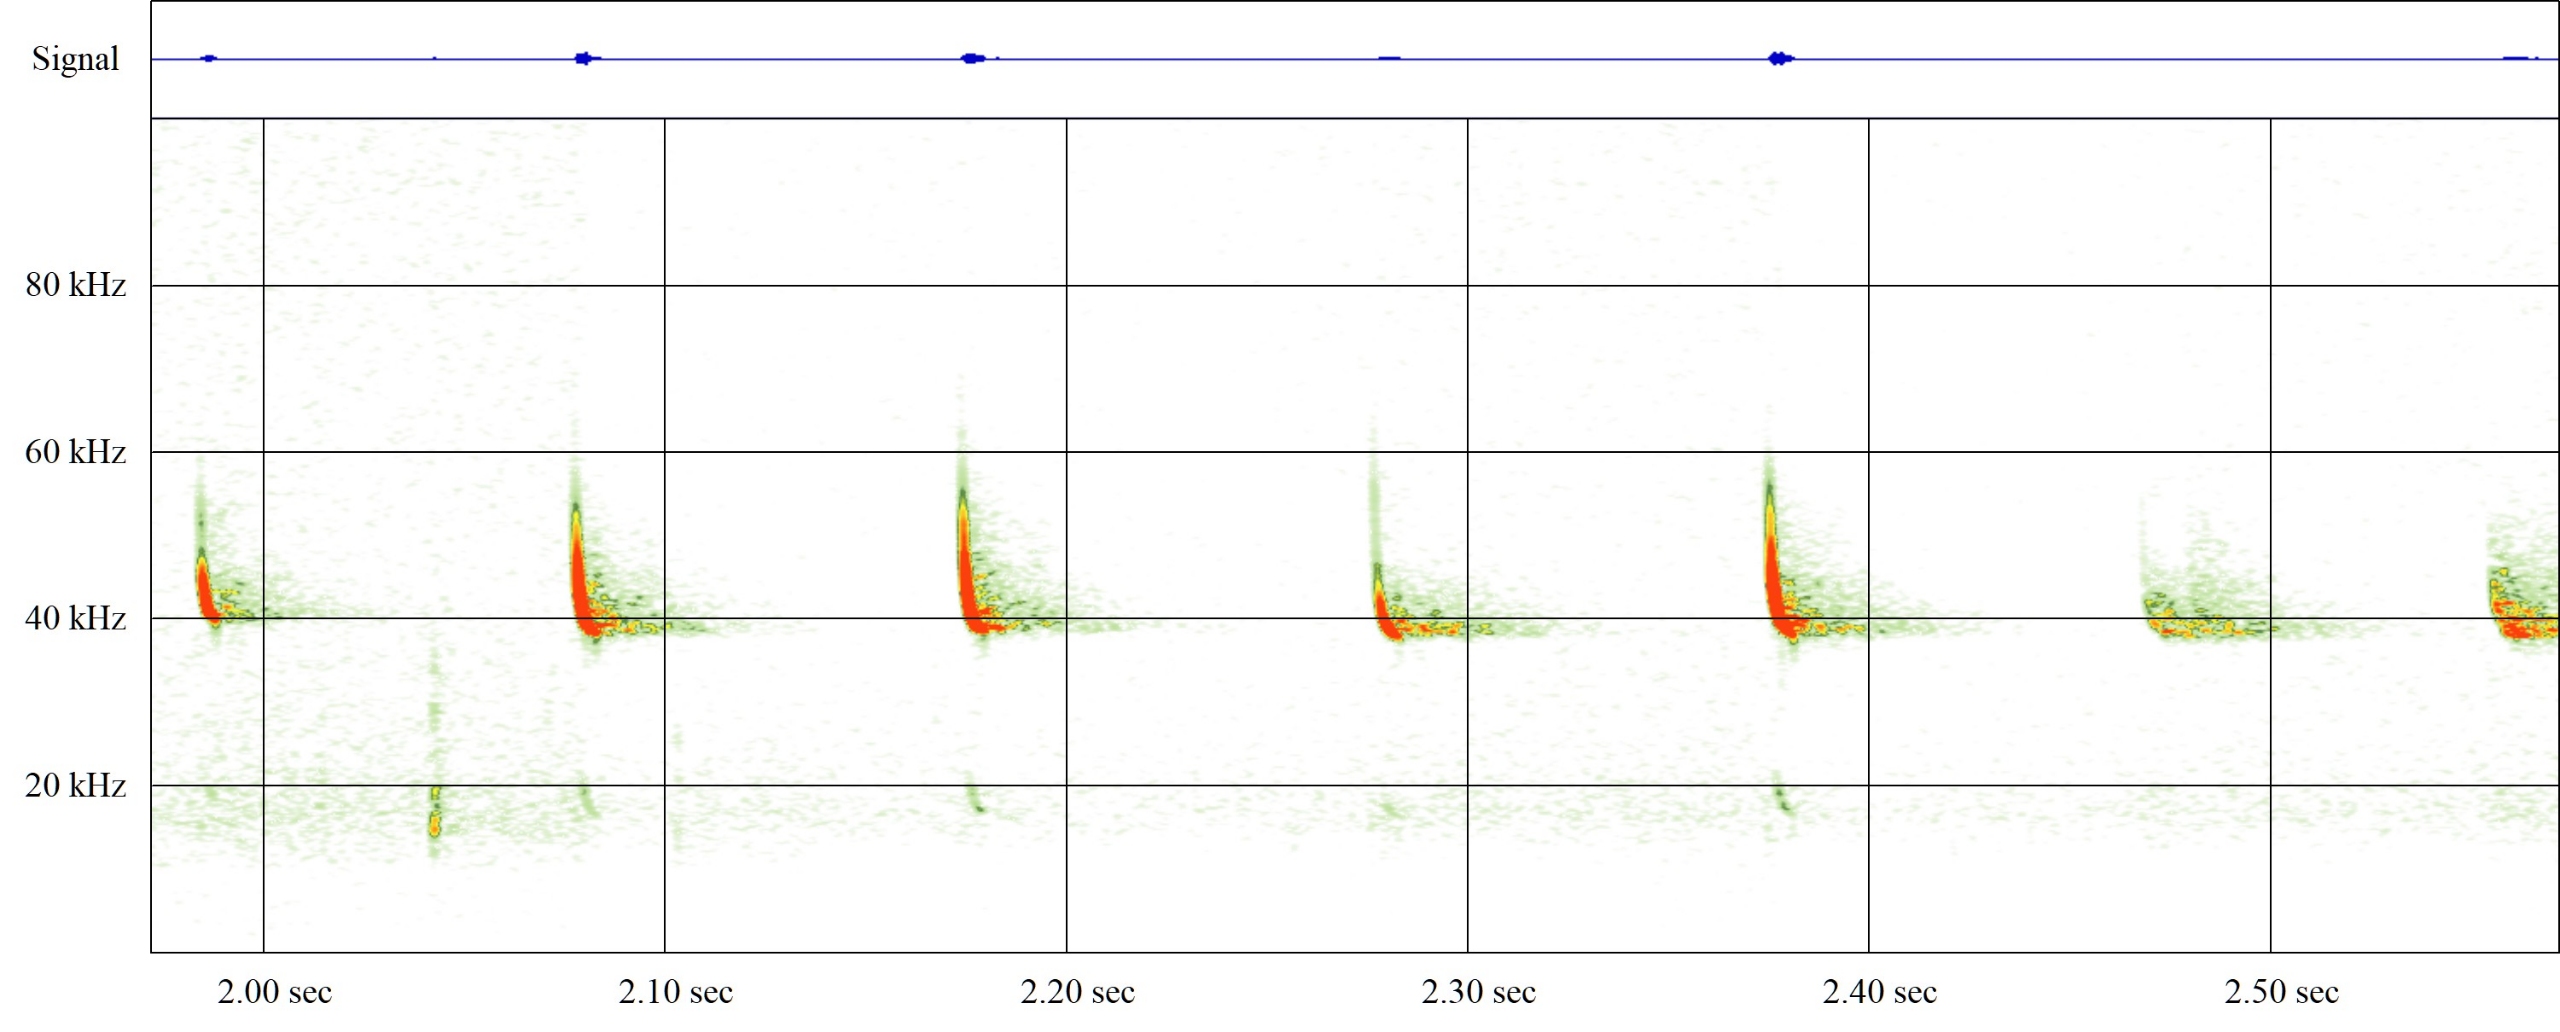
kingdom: Animalia
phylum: Chordata
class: Mammalia
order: Chiroptera
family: Vespertilionidae
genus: Pipistrellus
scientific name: Pipistrellus nathusii
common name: Troldflagermus
